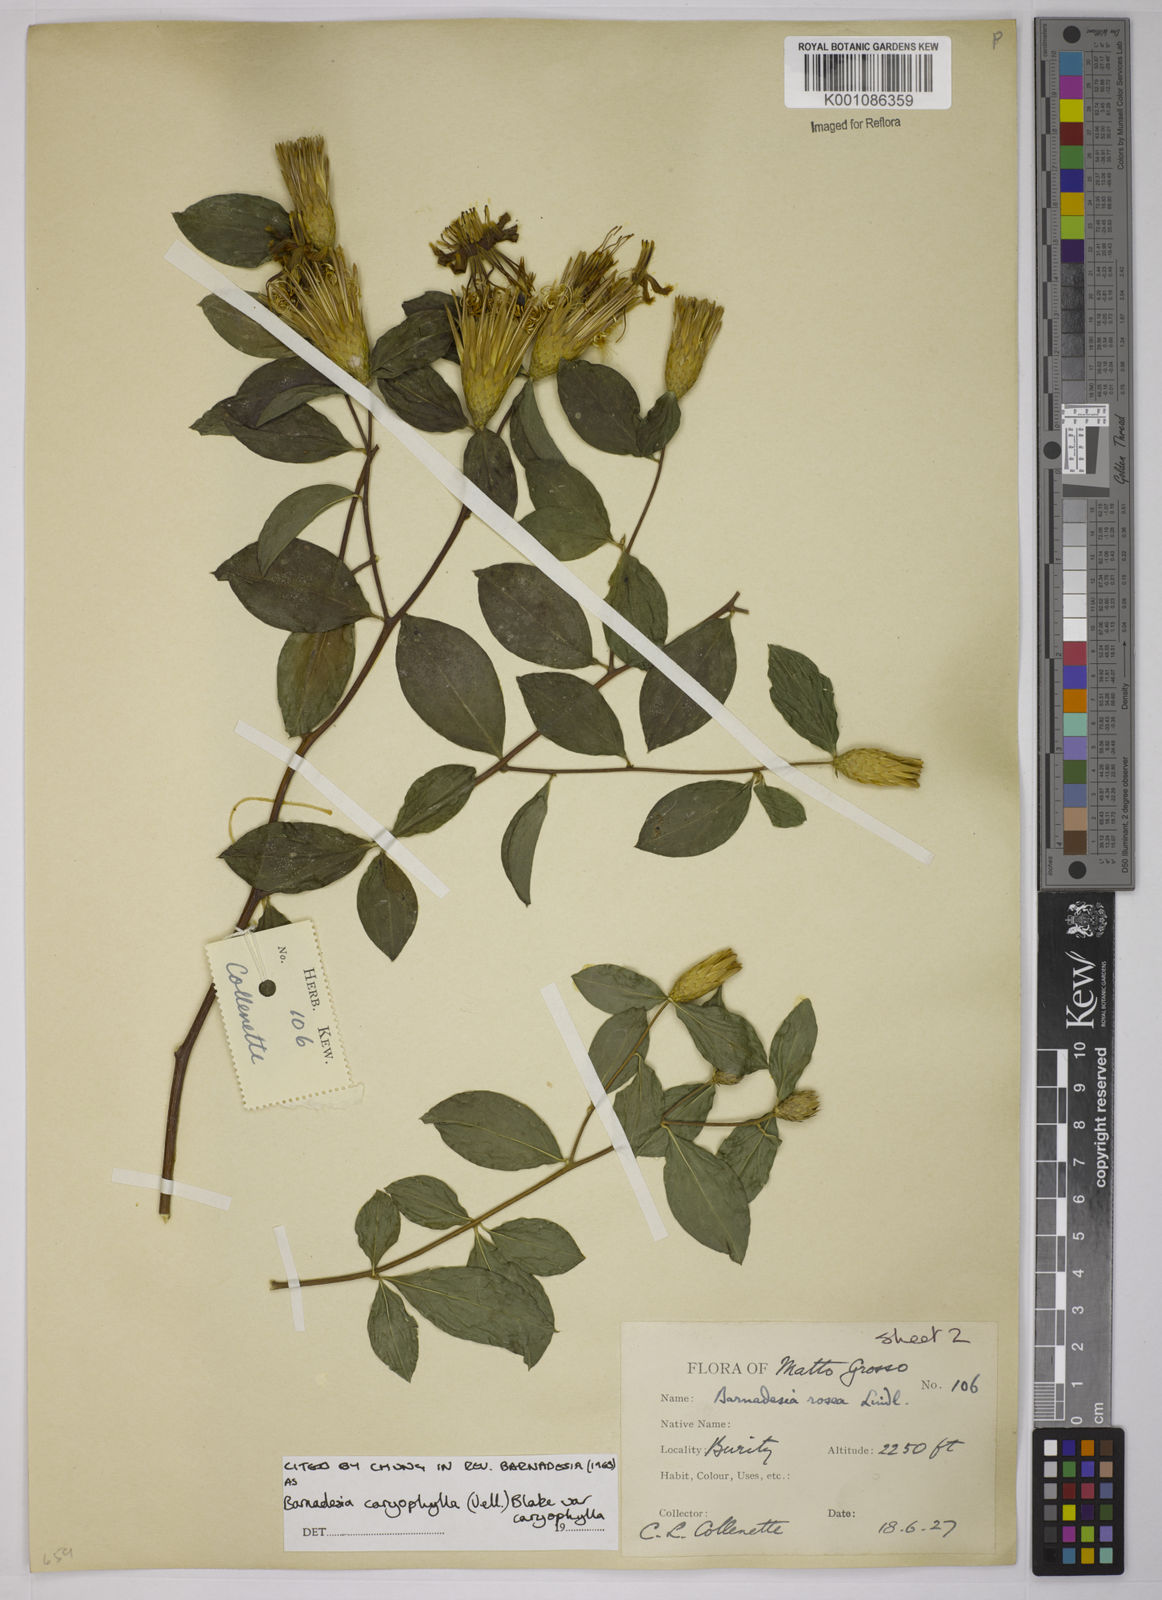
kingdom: Plantae
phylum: Tracheophyta
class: Magnoliopsida
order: Asterales
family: Asteraceae
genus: Barnadesia
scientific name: Barnadesia caryophylla
